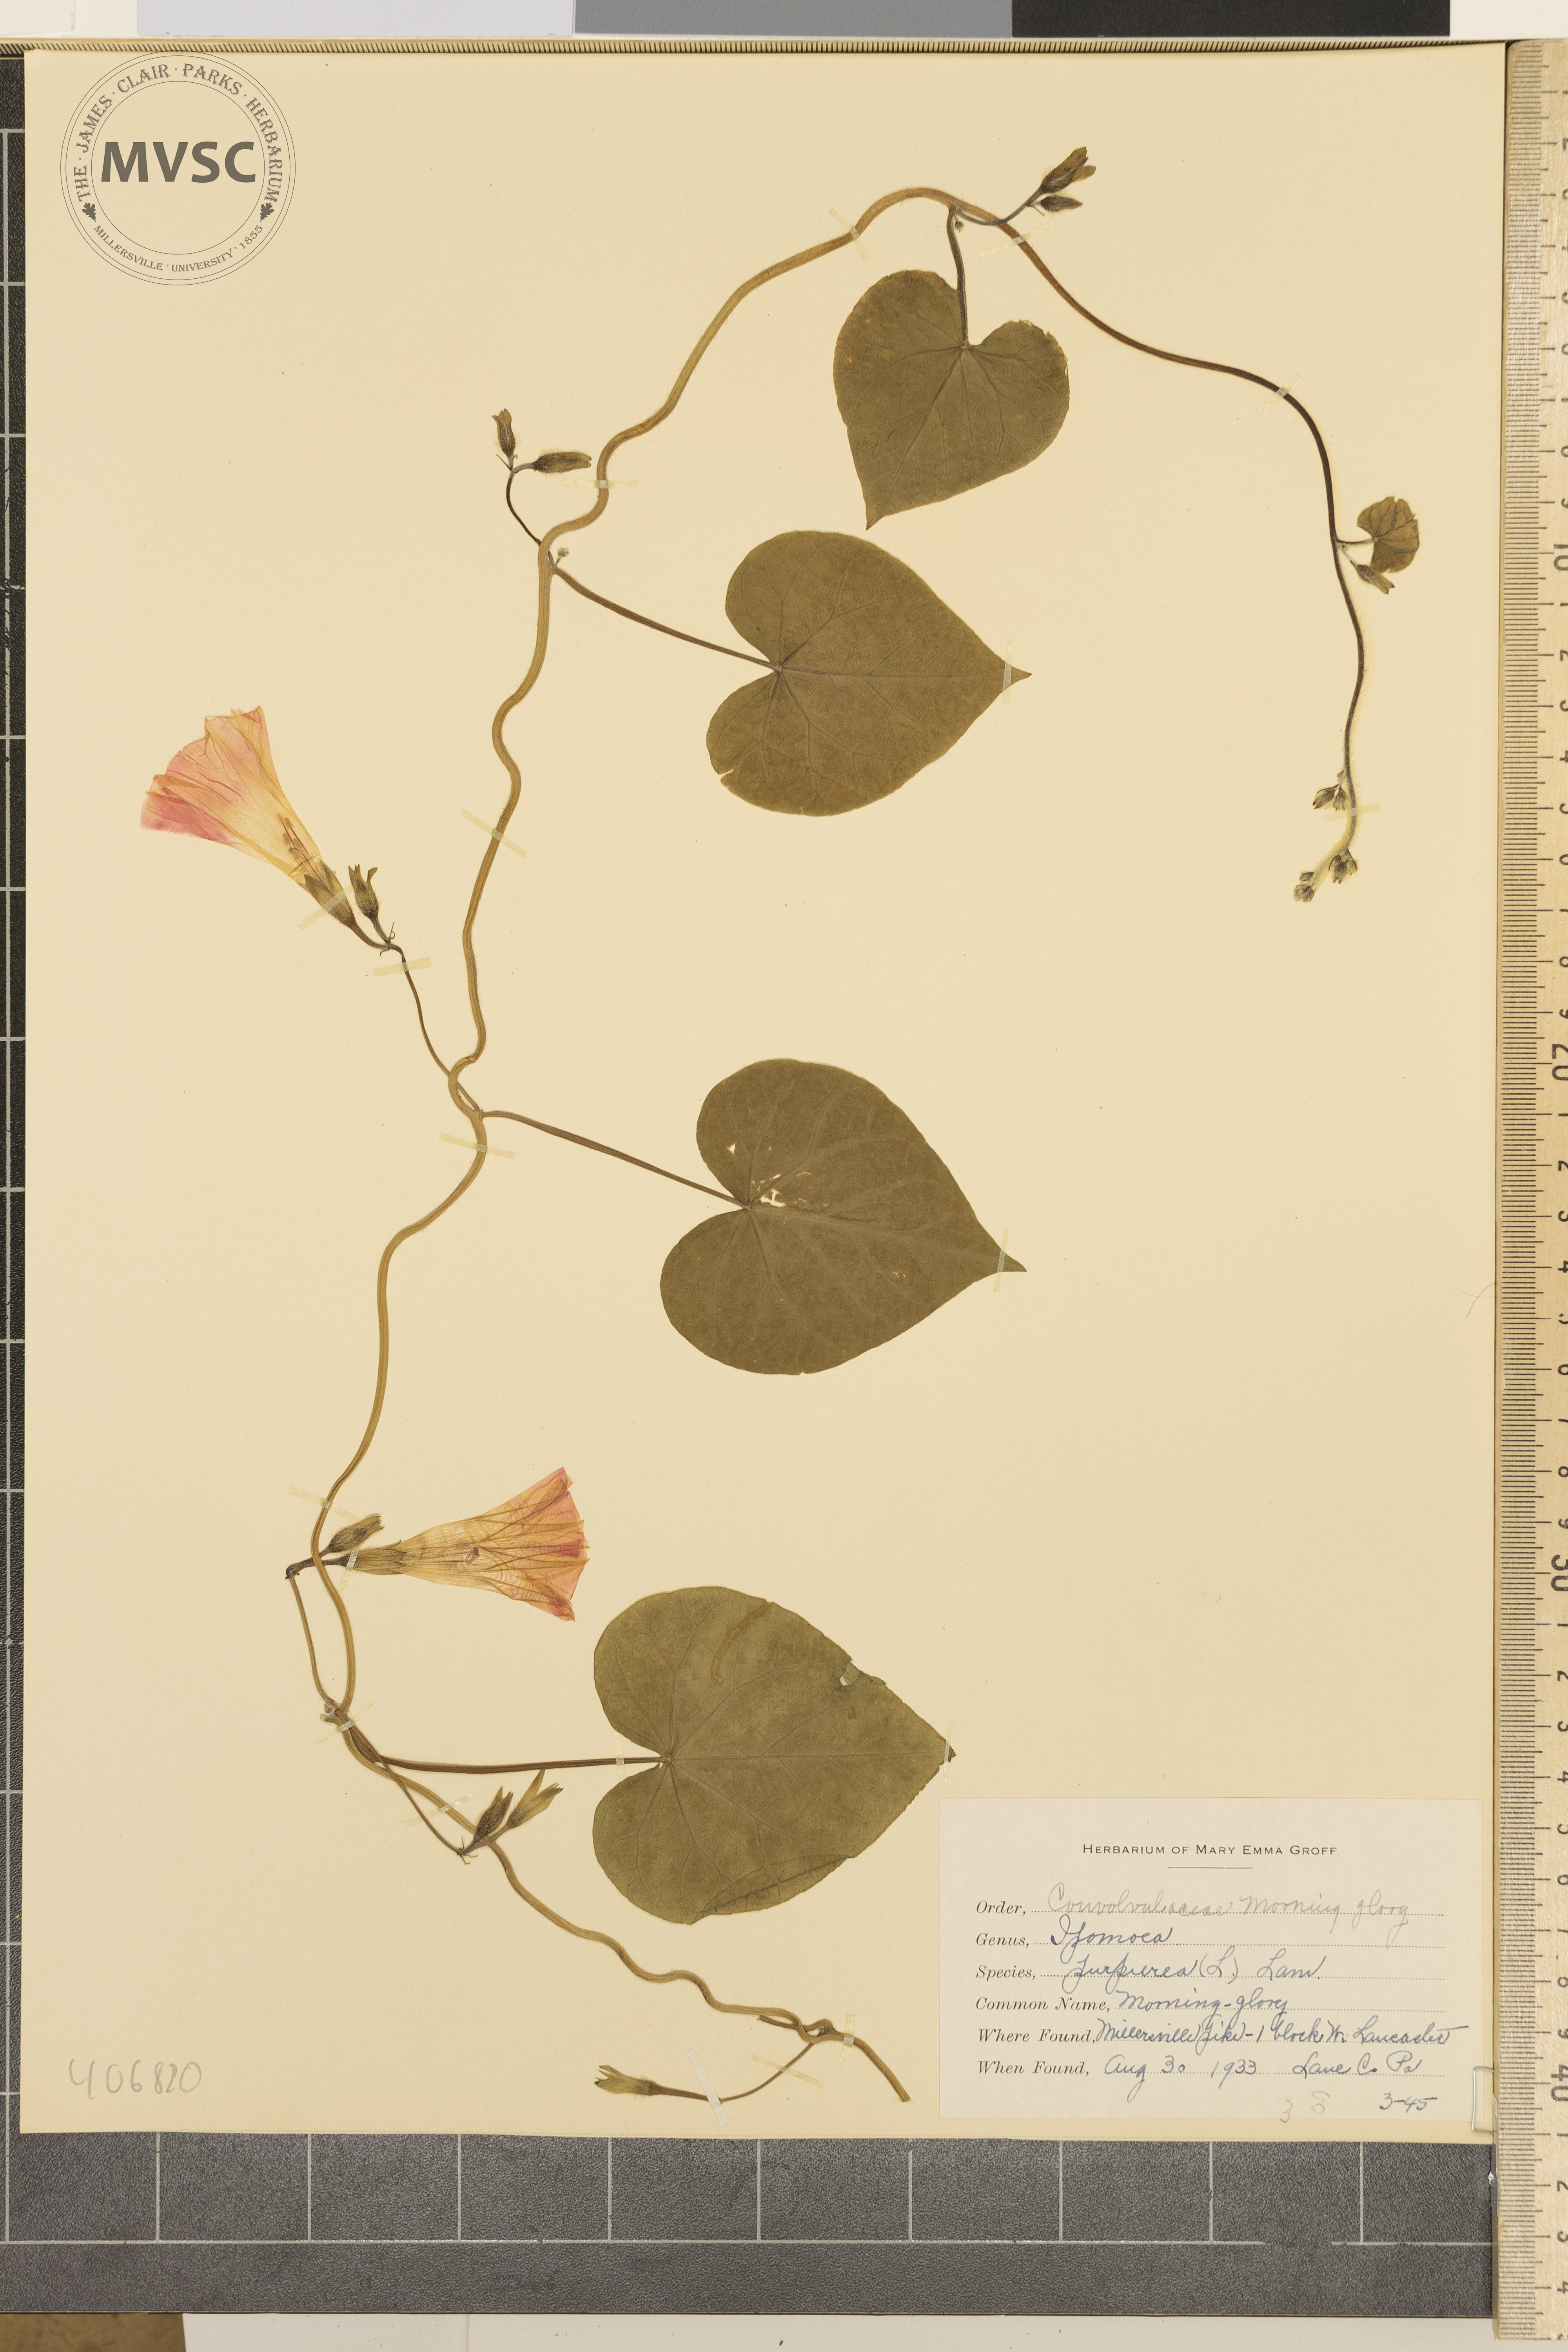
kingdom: Plantae
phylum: Tracheophyta
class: Magnoliopsida
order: Solanales
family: Convolvulaceae
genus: Ipomoea
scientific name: Ipomoea purpurea
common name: morning-glory
